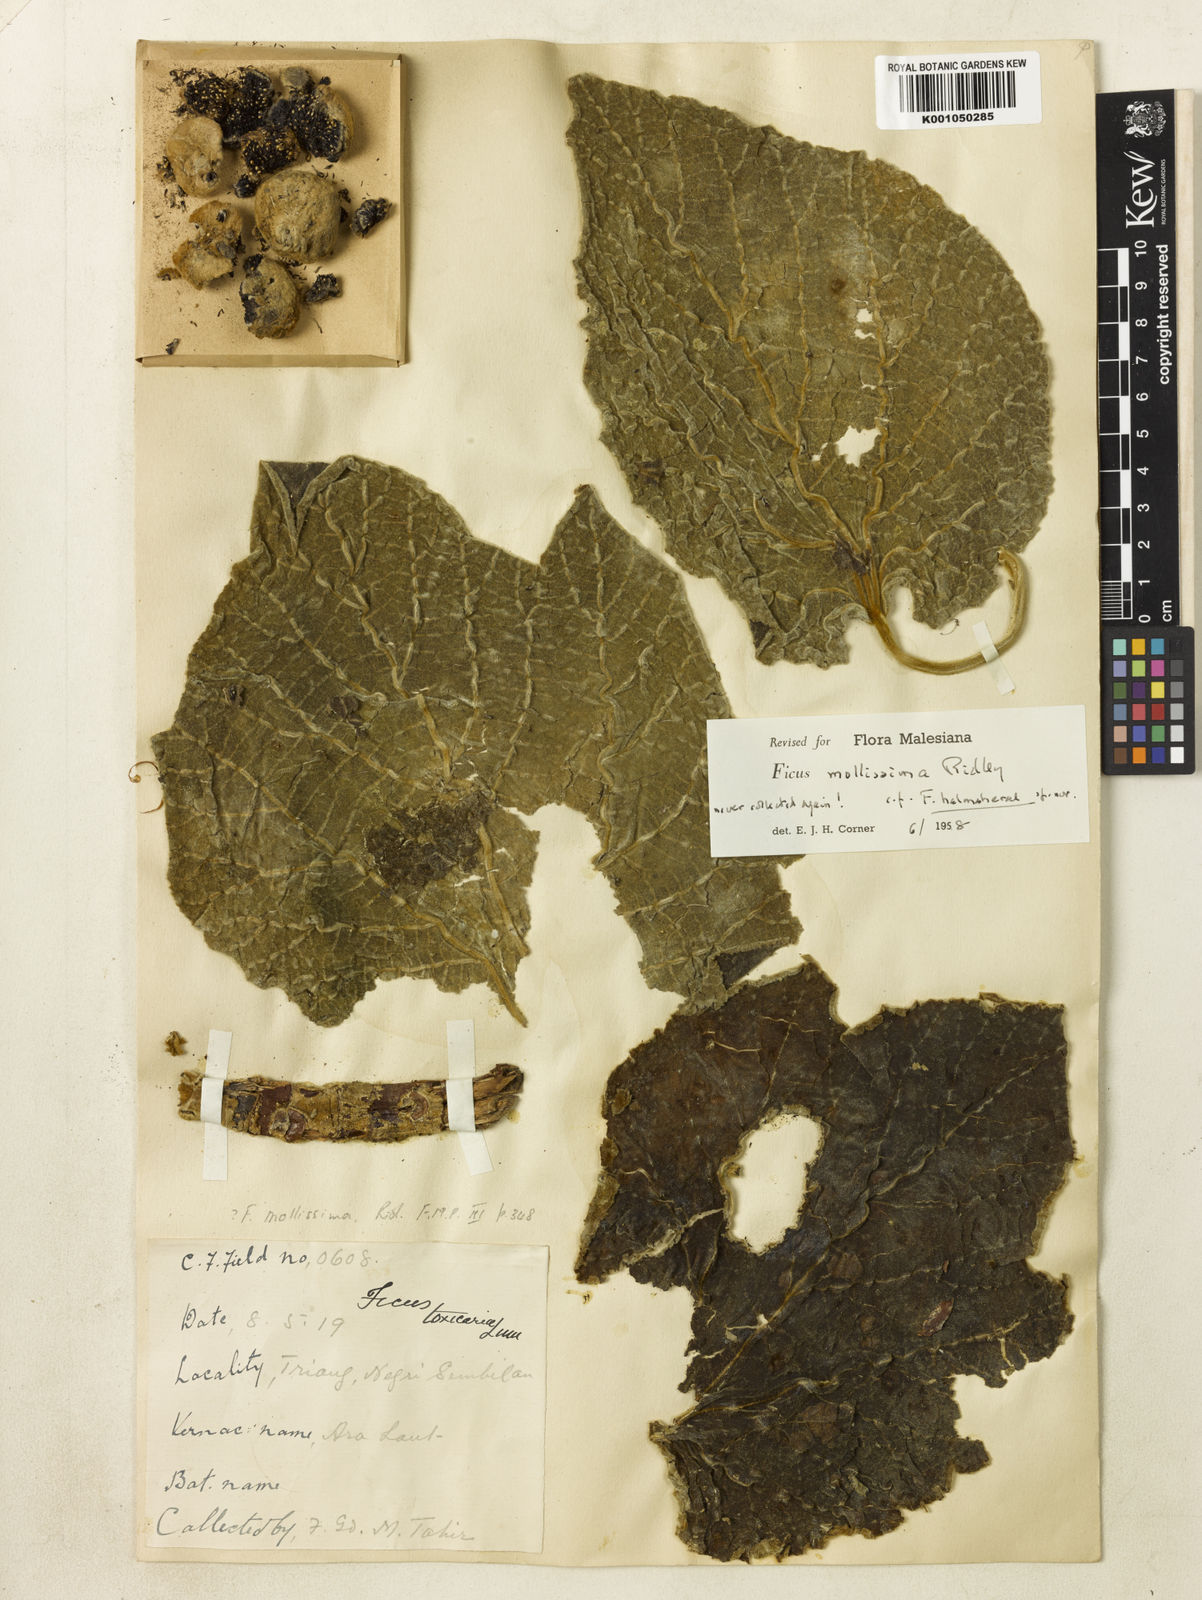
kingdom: Plantae
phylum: Tracheophyta
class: Magnoliopsida
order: Rosales
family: Moraceae
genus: Ficus
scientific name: Ficus mollissima
